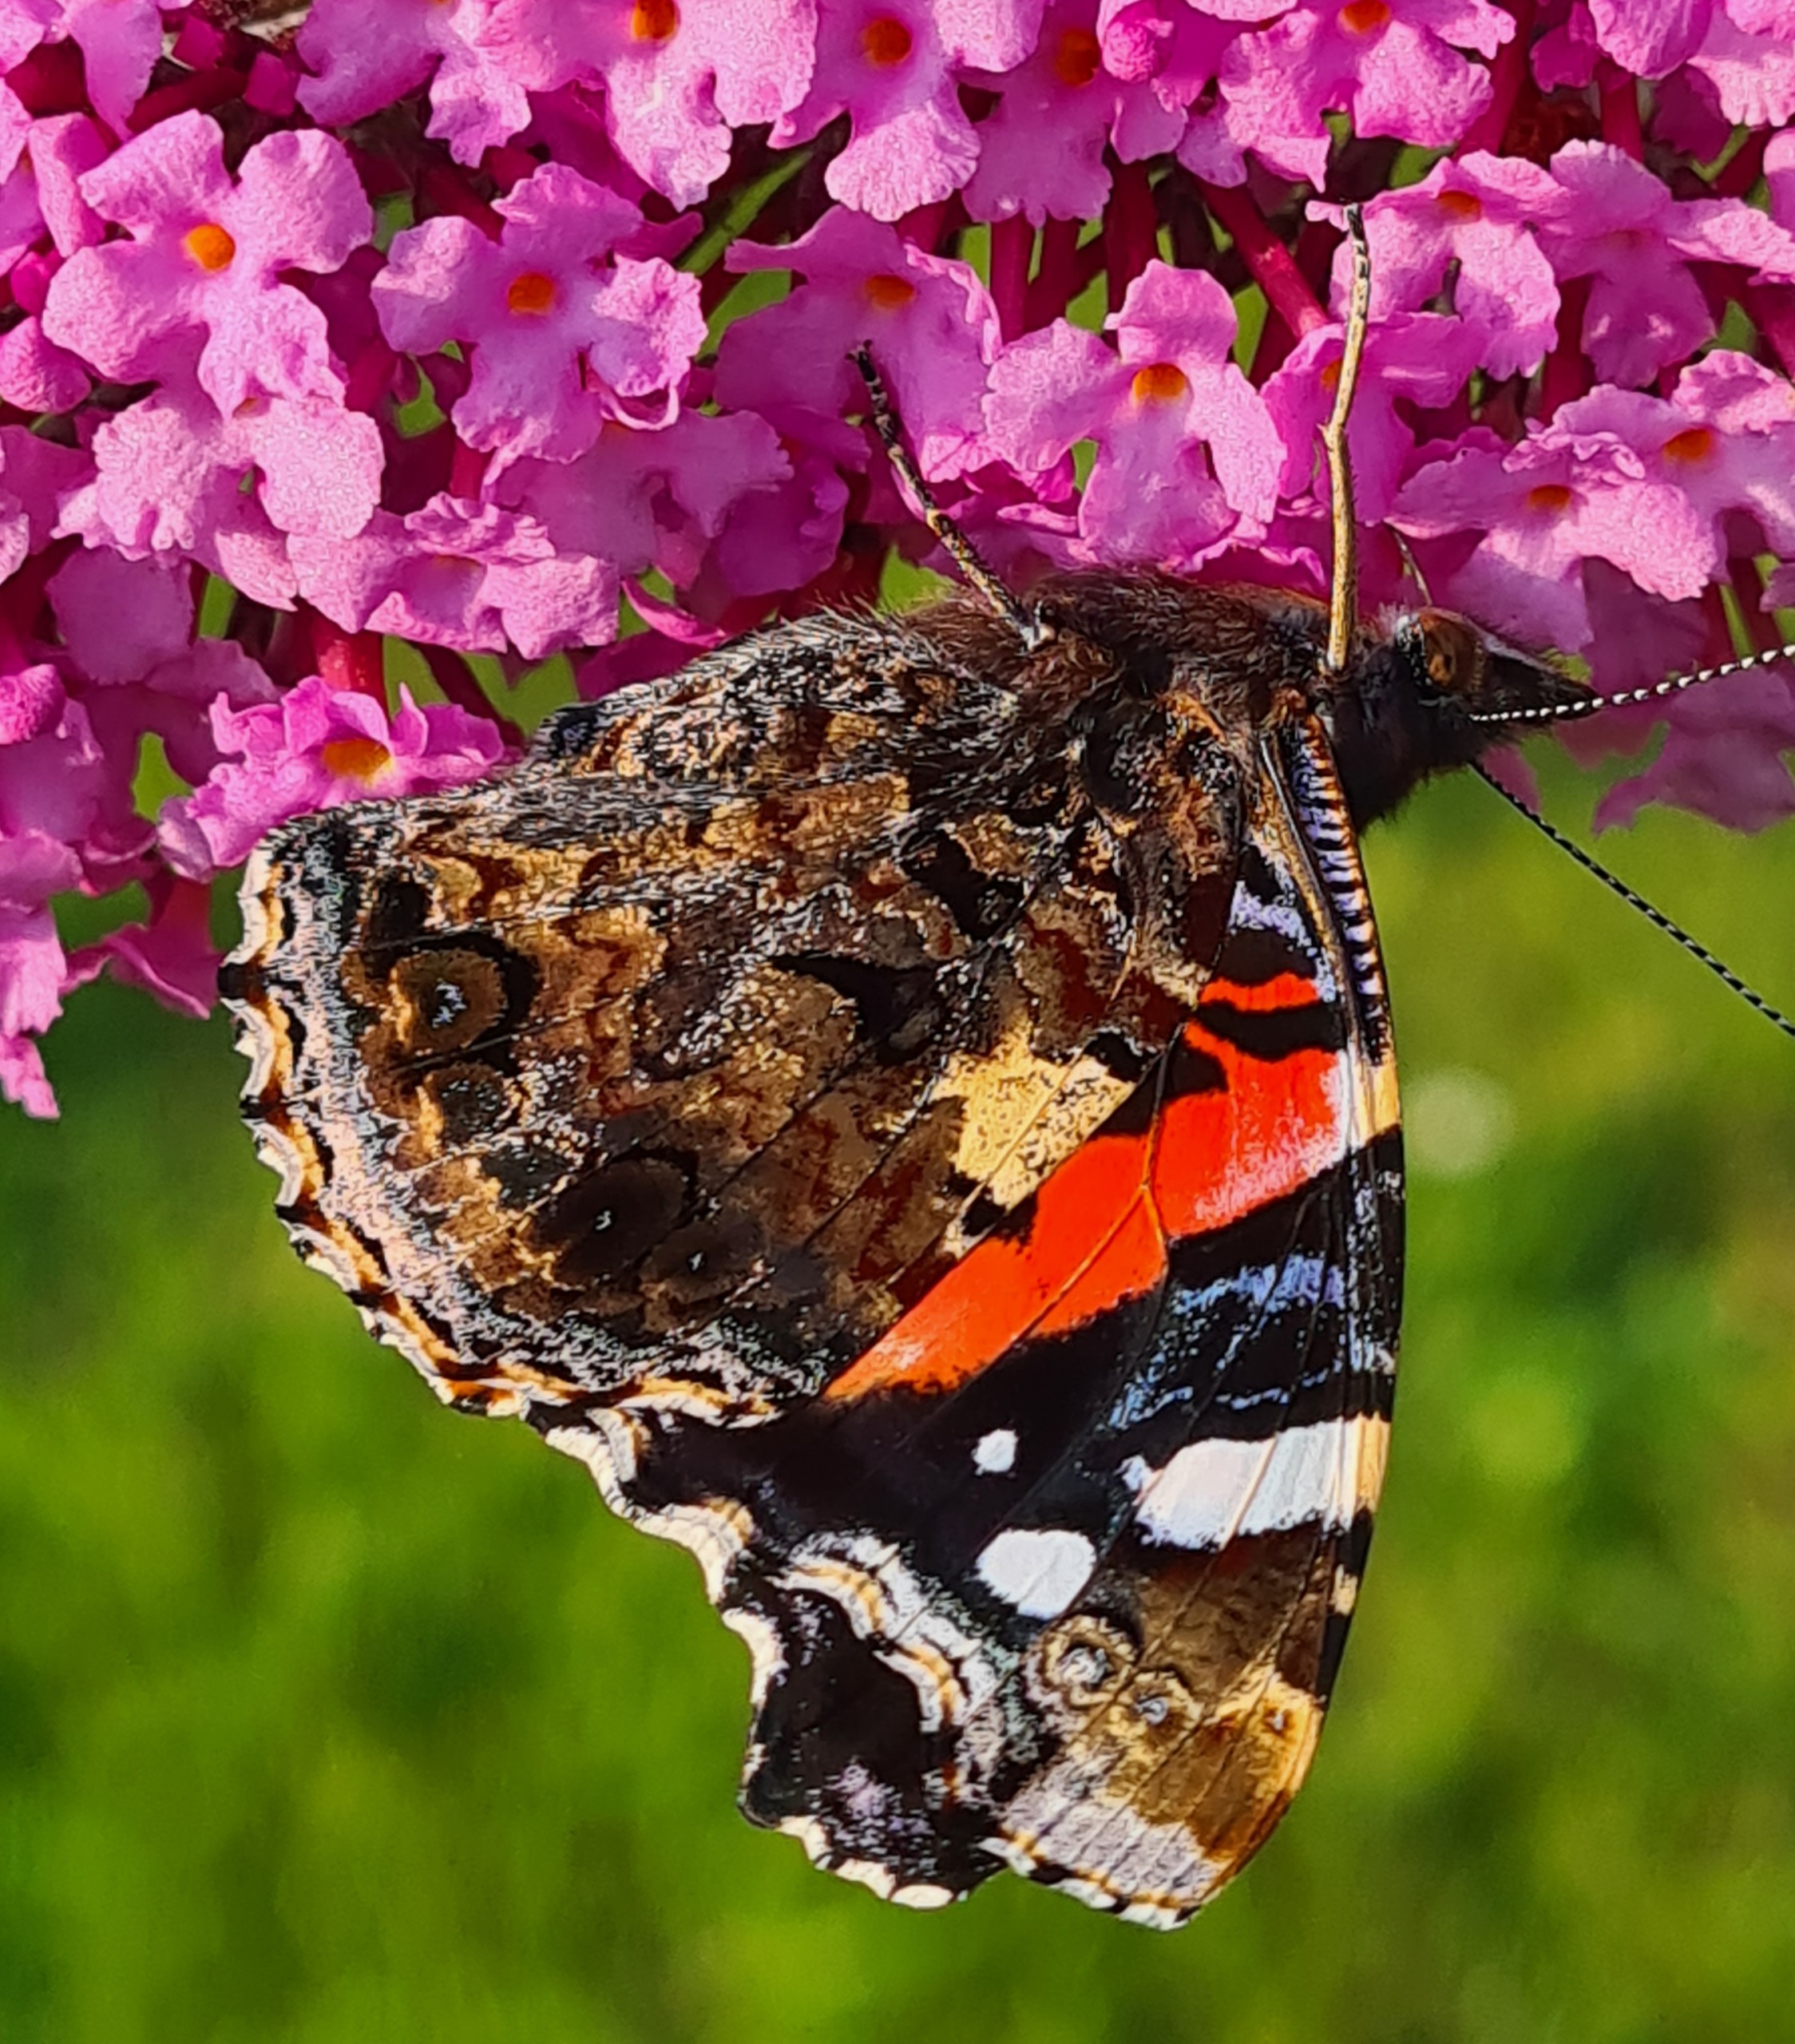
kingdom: Animalia
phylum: Arthropoda
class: Insecta
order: Lepidoptera
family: Nymphalidae
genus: Vanessa
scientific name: Vanessa atalanta
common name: Admiral
